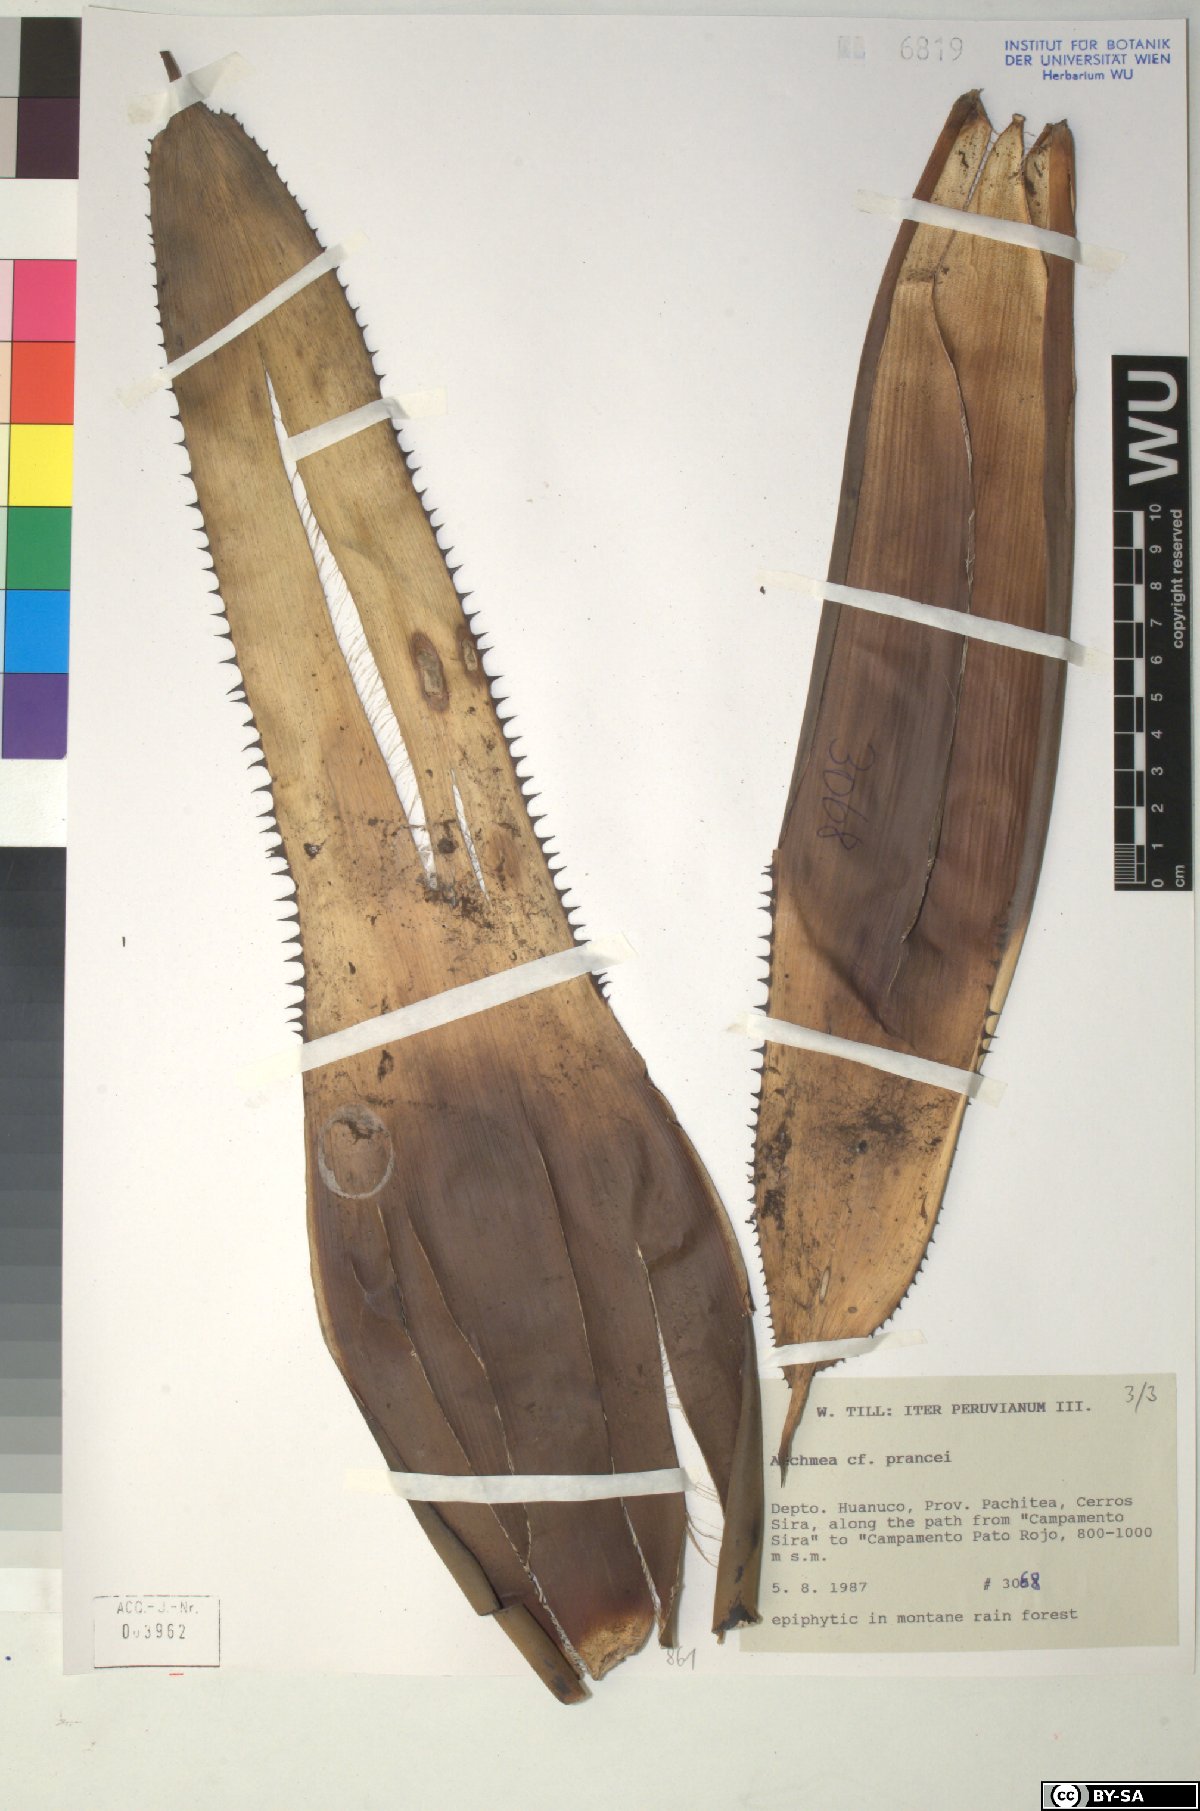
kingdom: Plantae
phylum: Tracheophyta
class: Liliopsida
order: Poales
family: Bromeliaceae
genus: Aechmea
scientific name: Aechmea prancei
